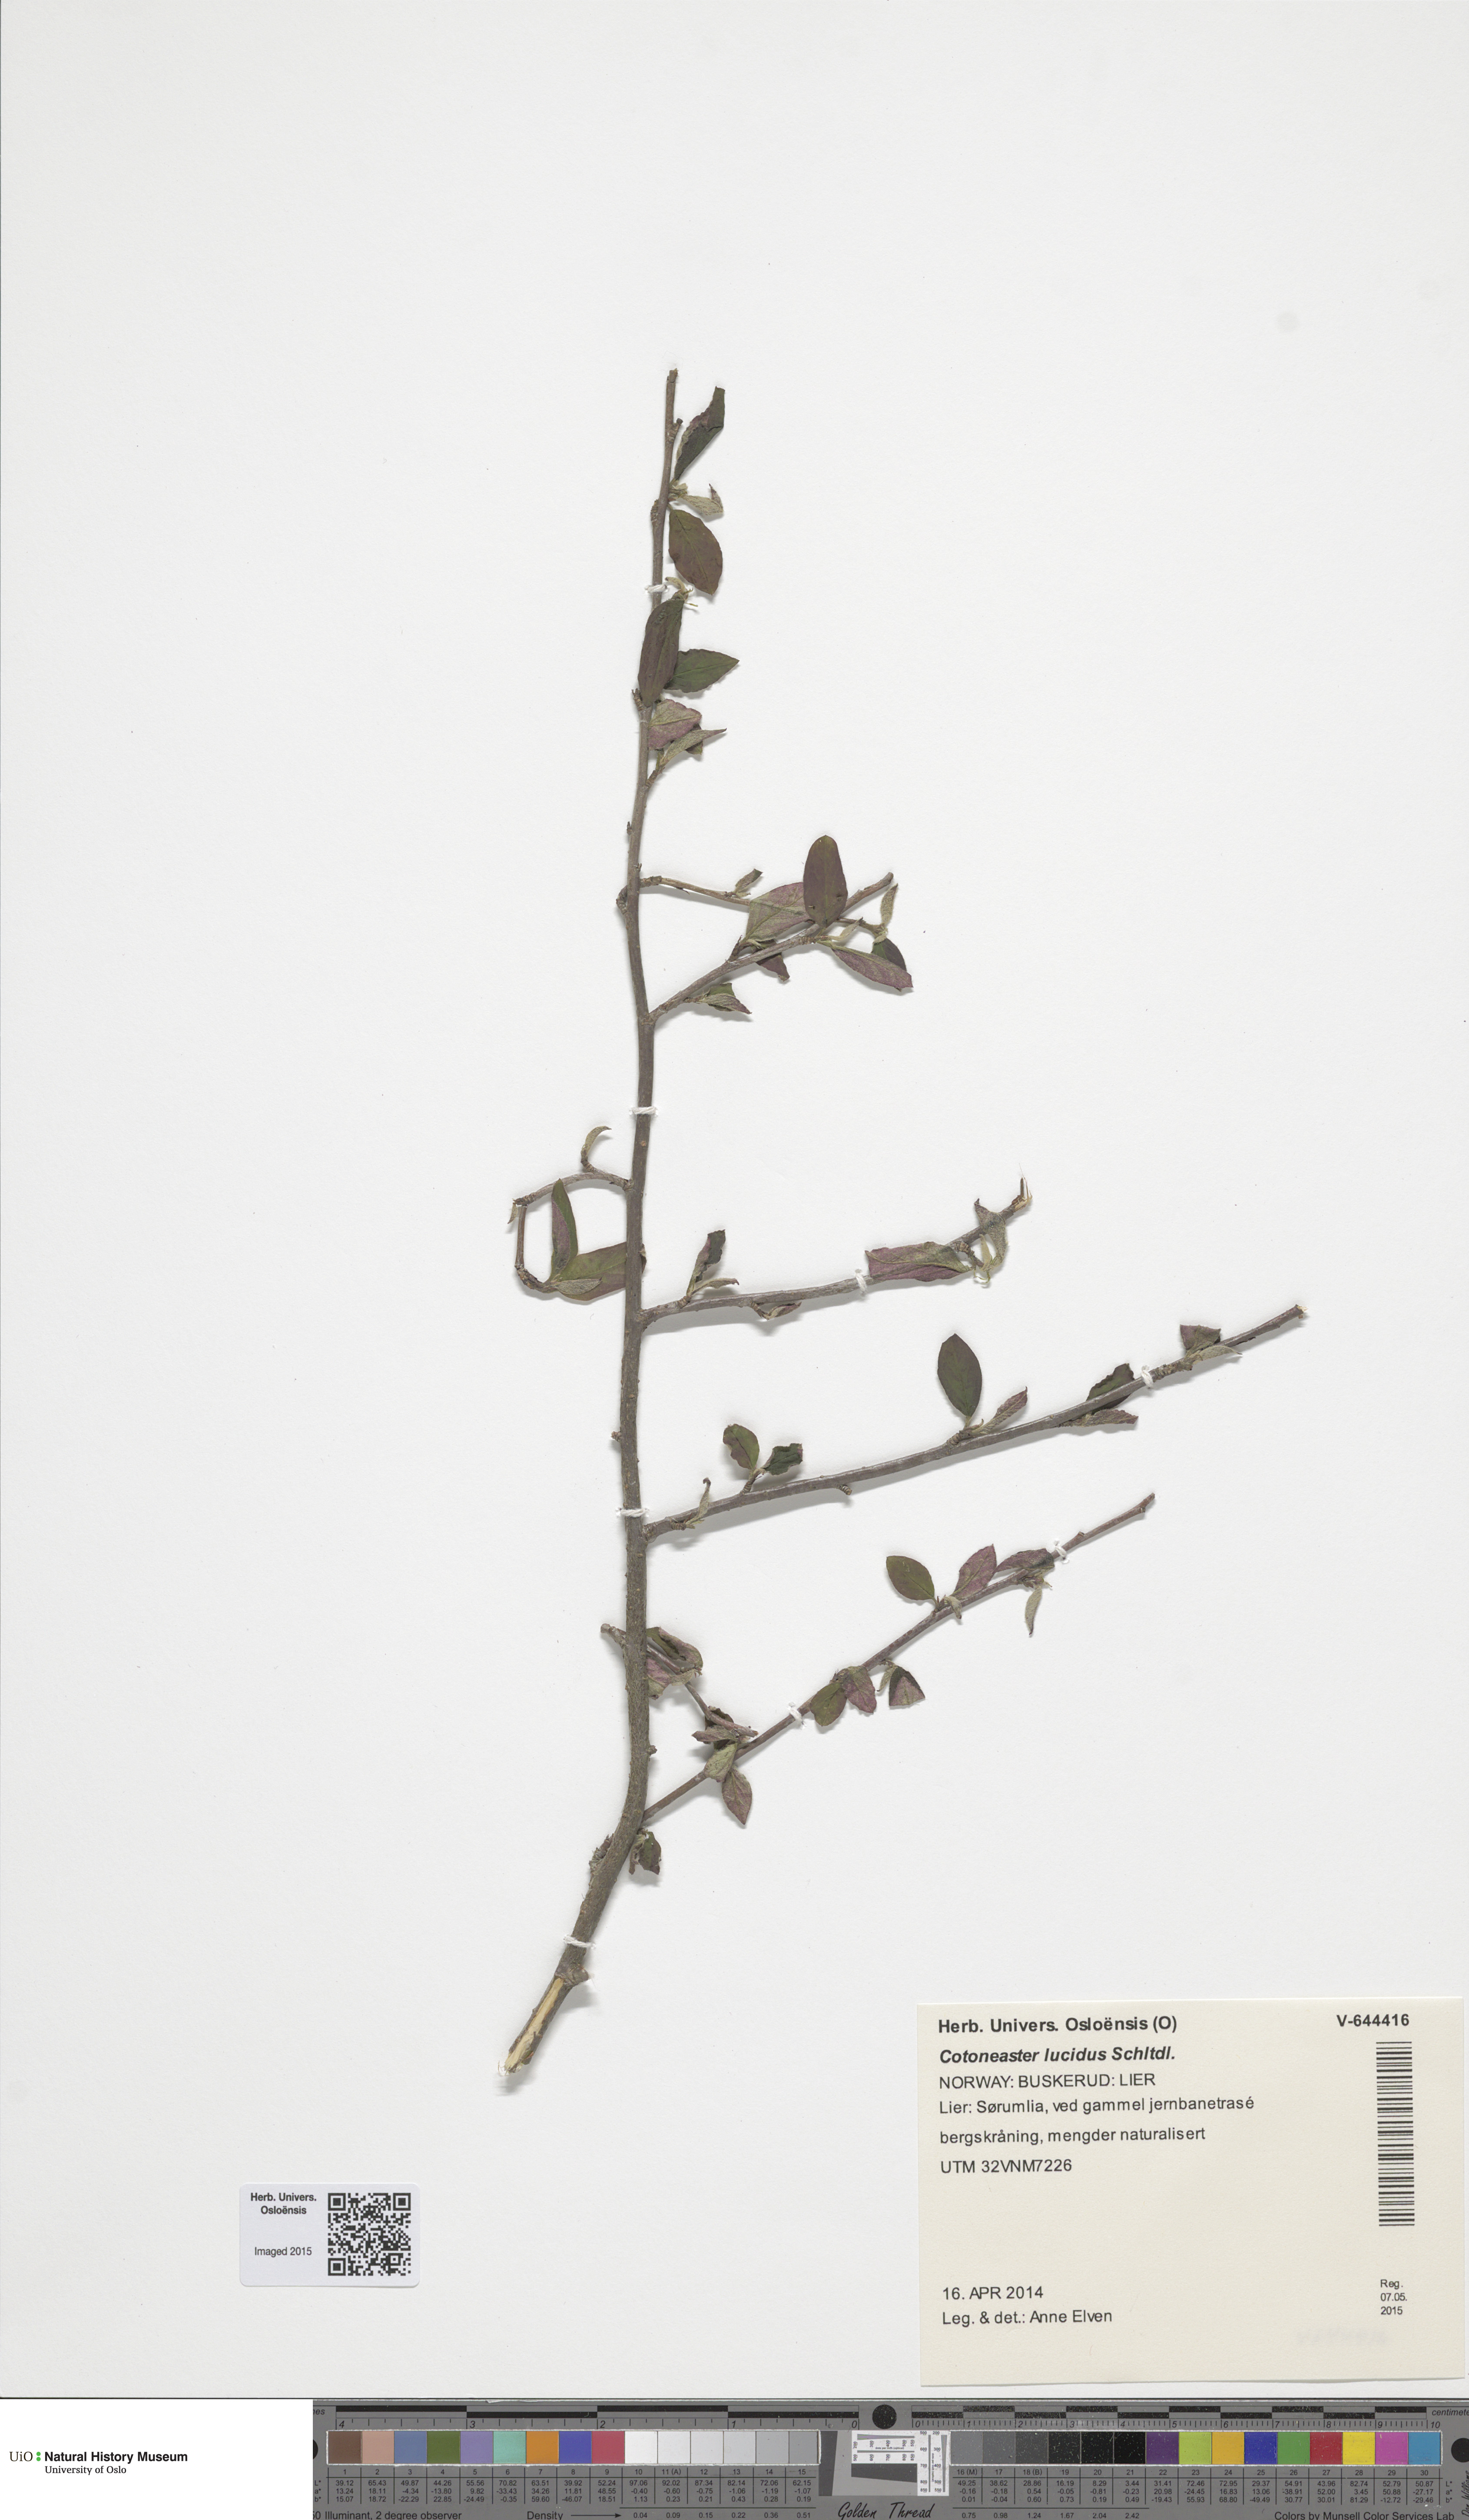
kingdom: Plantae
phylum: Tracheophyta
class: Magnoliopsida
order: Rosales
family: Rosaceae
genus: Cotoneaster
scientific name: Cotoneaster acutifolius
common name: Peking cotoneaster
